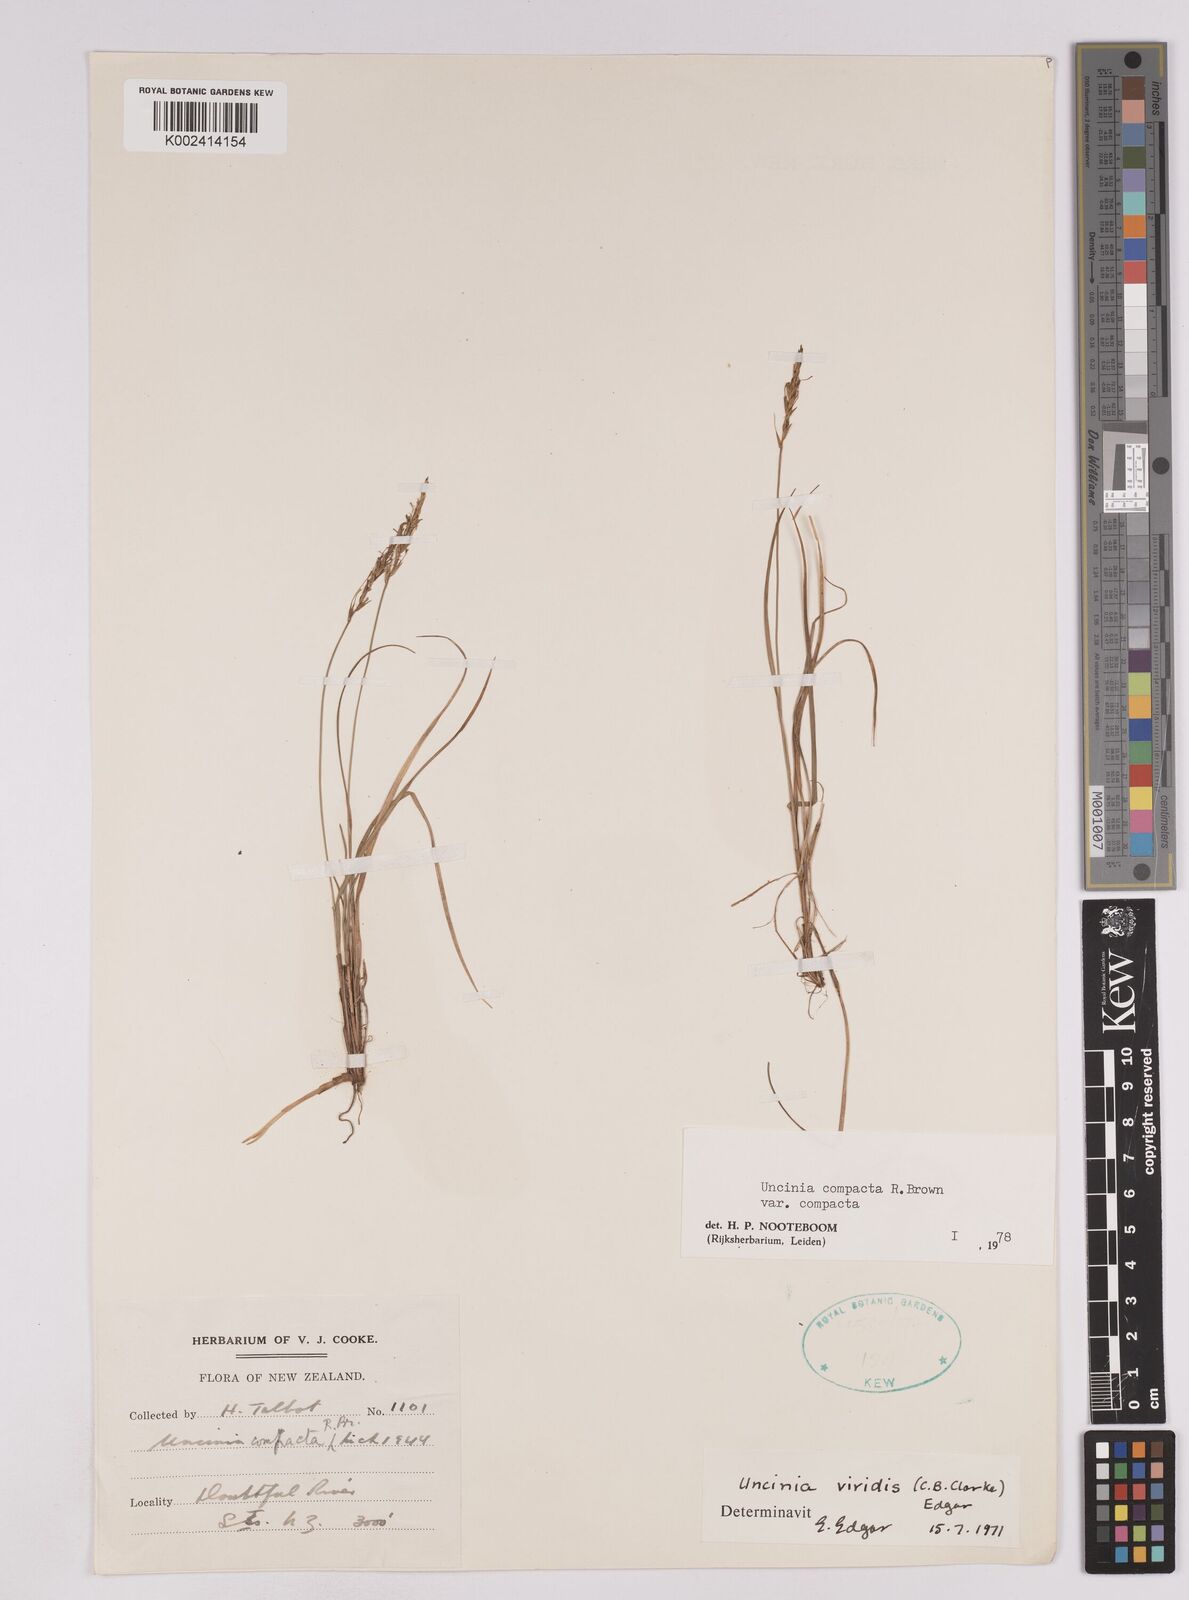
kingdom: Plantae
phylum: Tracheophyta
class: Liliopsida
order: Poales
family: Cyperaceae
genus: Carex
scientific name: Carex austrocompacta
